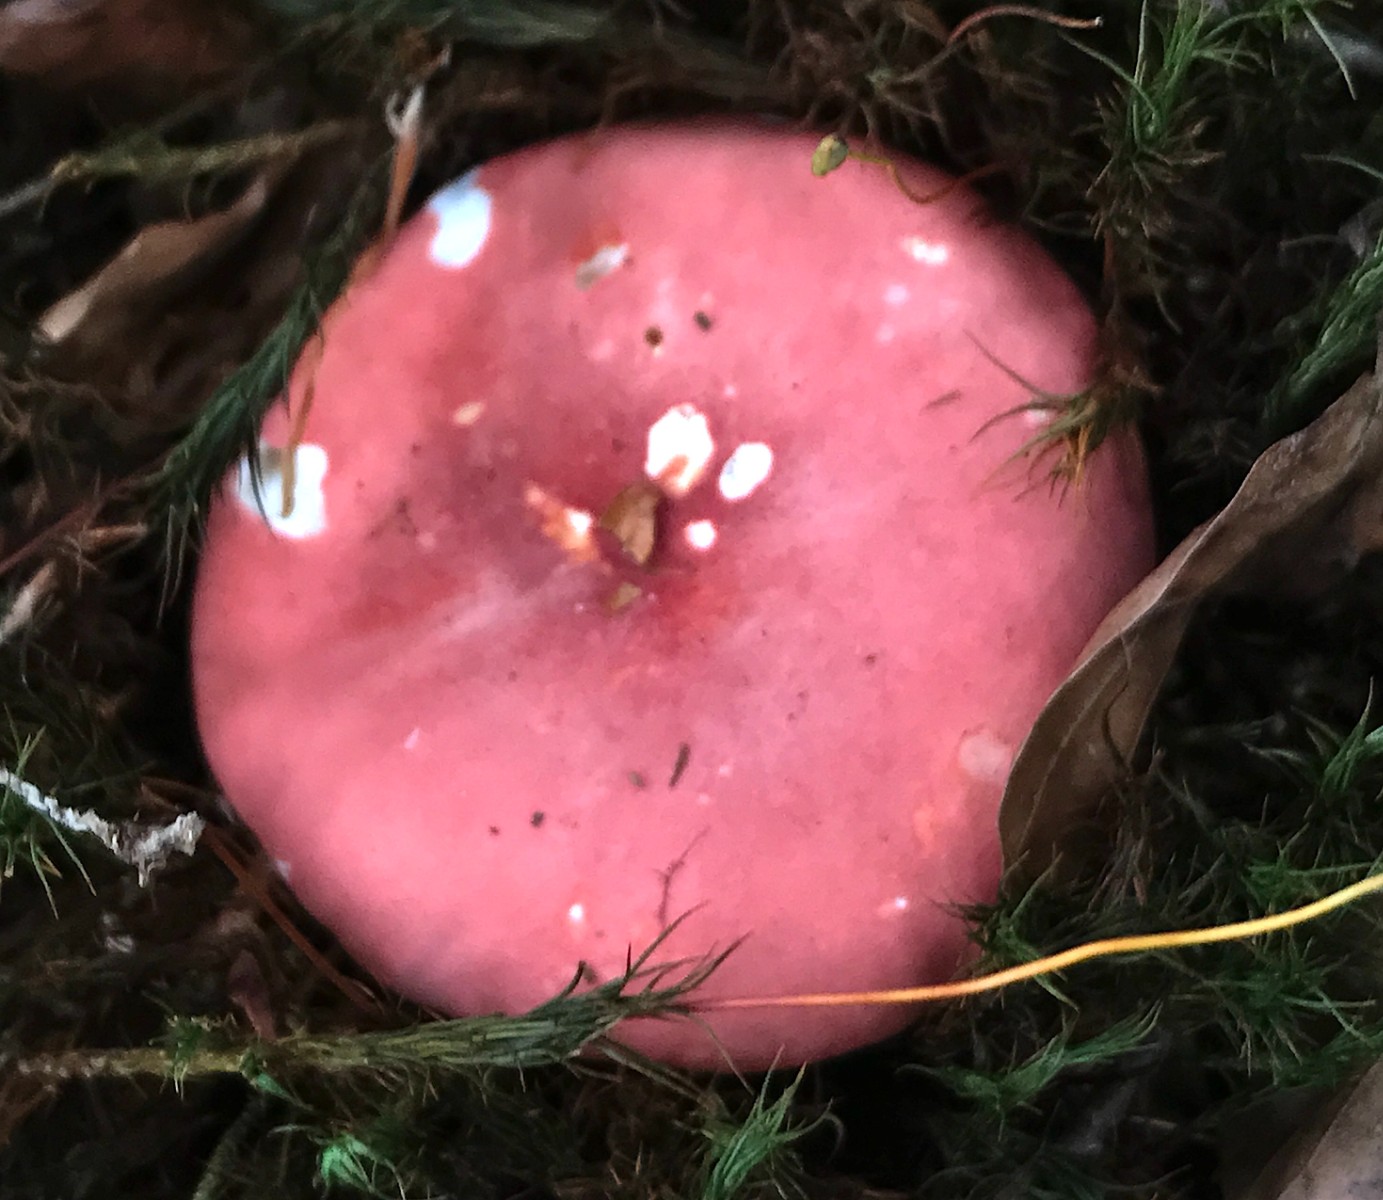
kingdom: Fungi
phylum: Basidiomycota
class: Agaricomycetes
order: Russulales
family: Russulaceae
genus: Russula
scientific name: Russula rosea
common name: fastkødet skørhat
